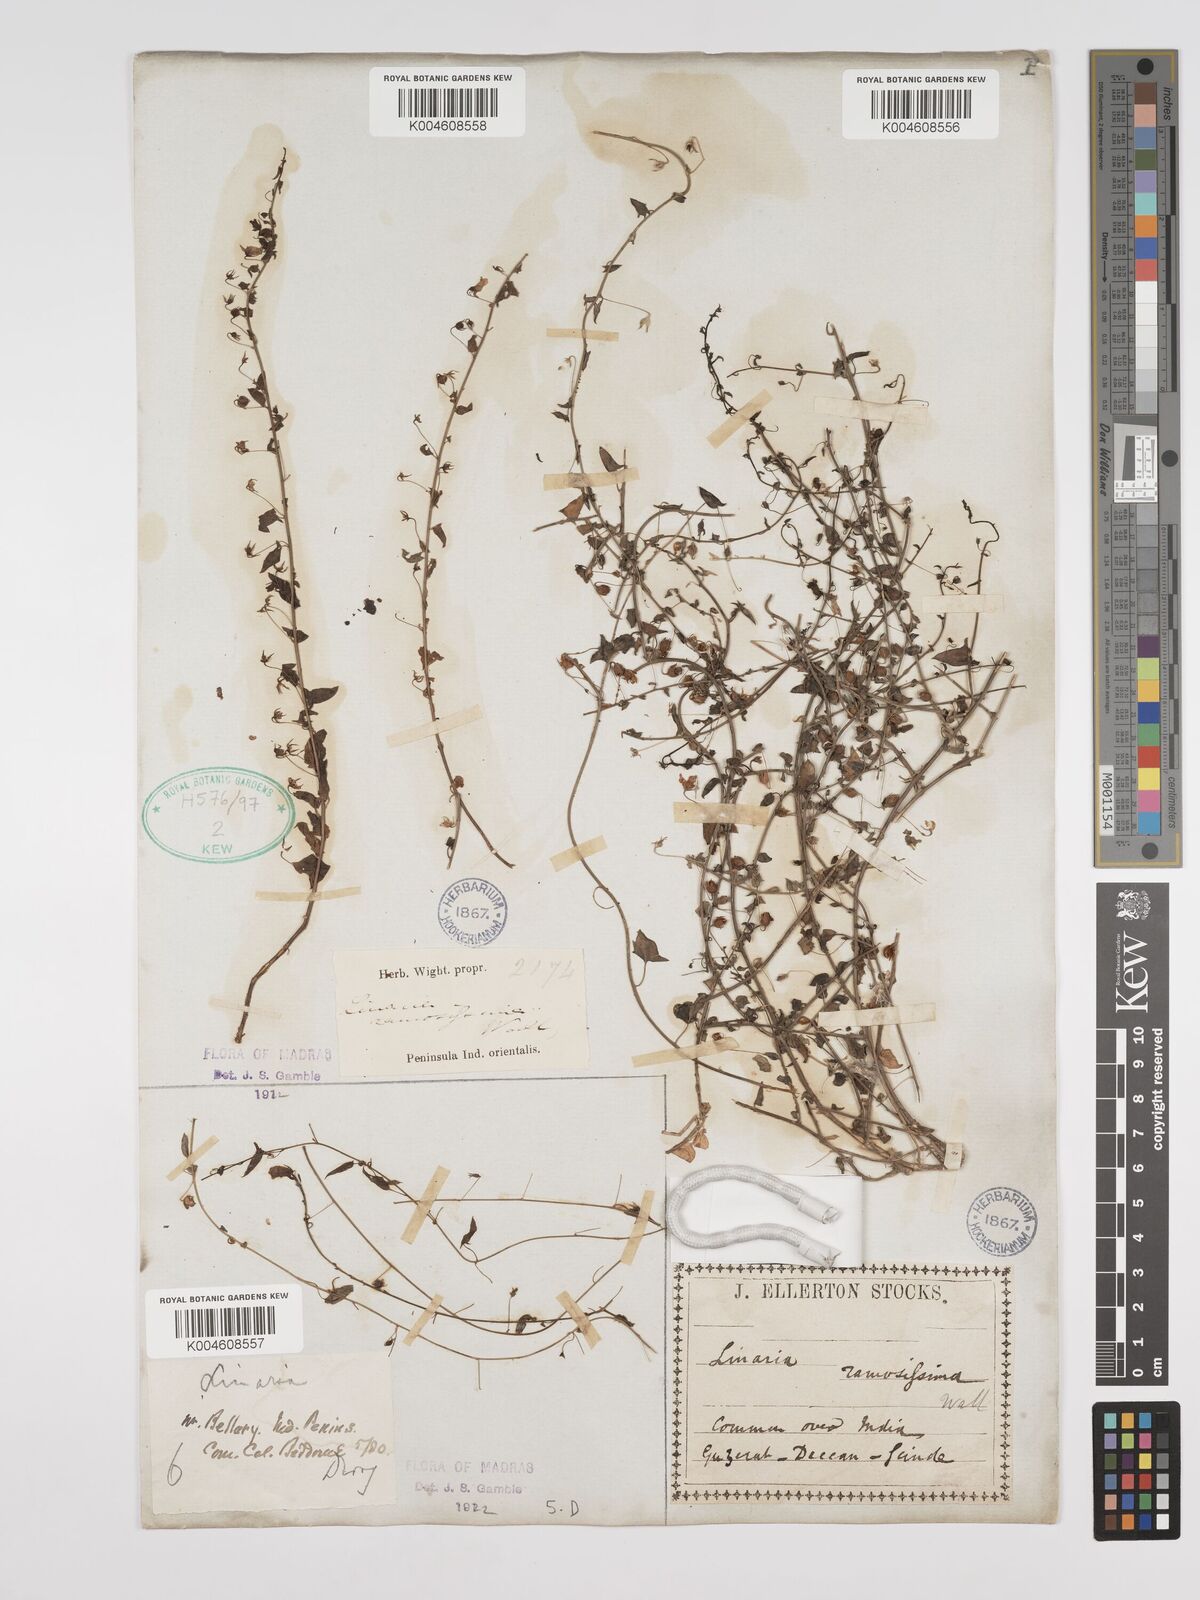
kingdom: Plantae
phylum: Tracheophyta
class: Magnoliopsida
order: Lamiales
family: Plantaginaceae
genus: Nanorrhinum
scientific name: Nanorrhinum ramosissimum
